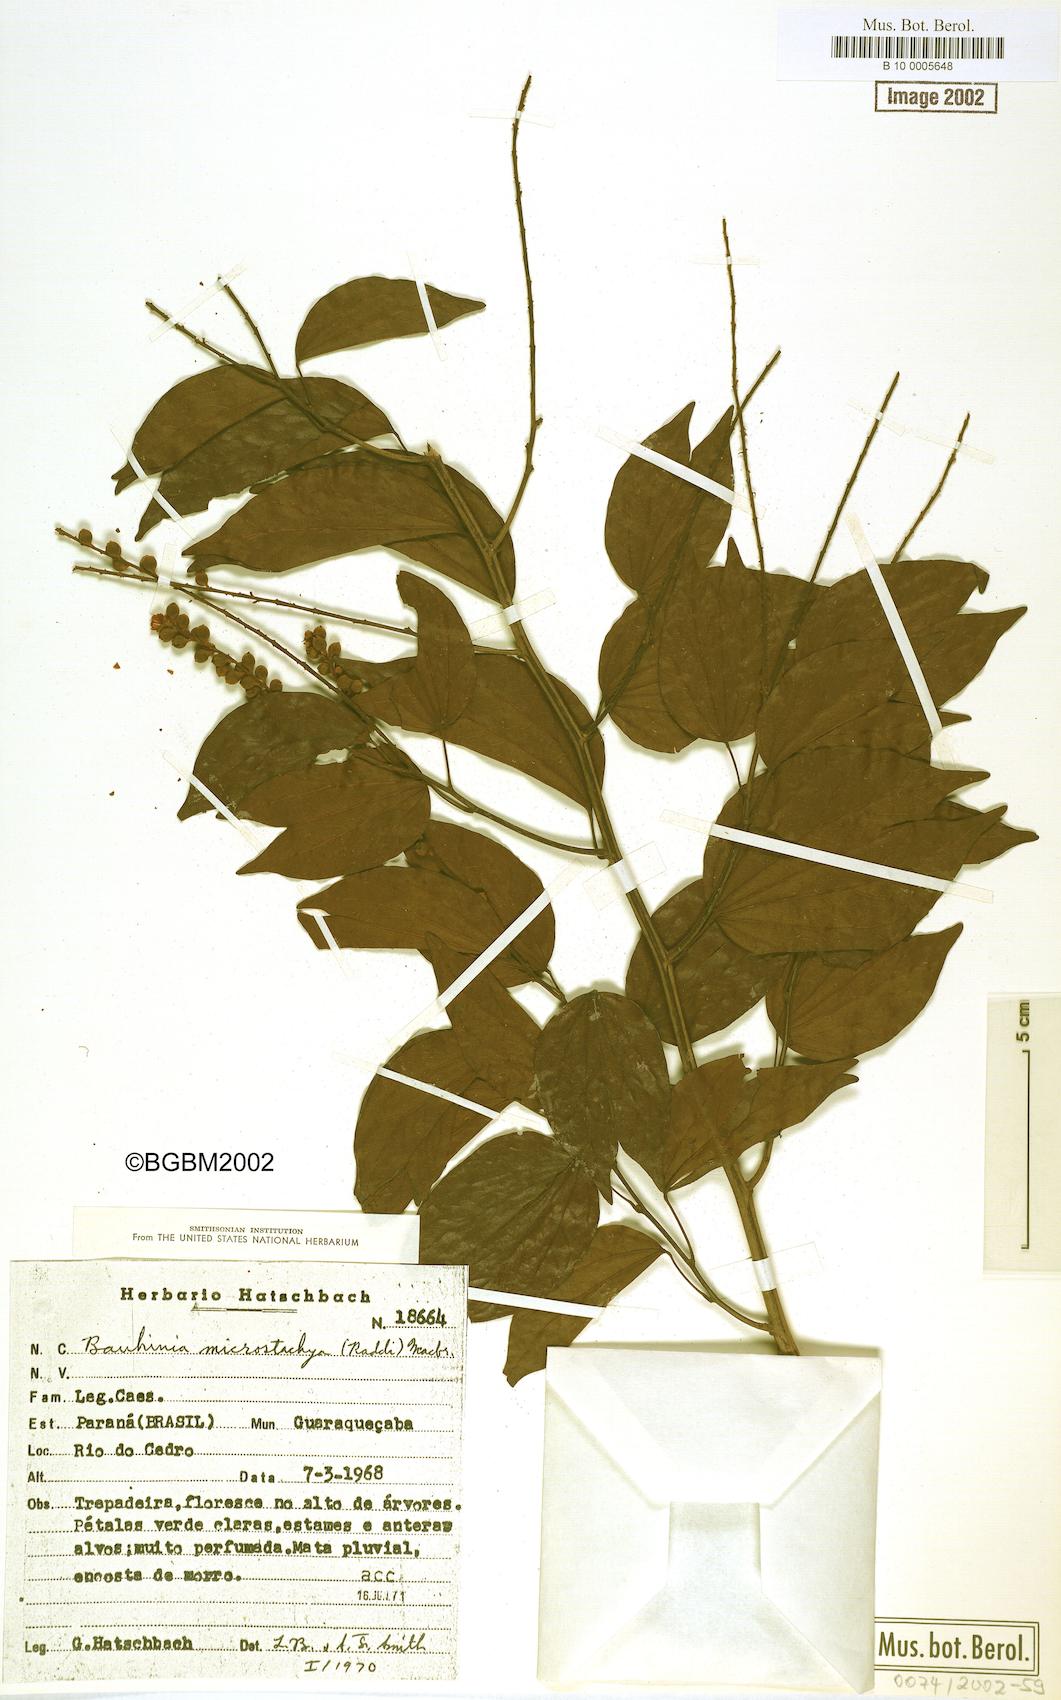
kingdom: Plantae
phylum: Tracheophyta
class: Magnoliopsida
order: Fabales
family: Fabaceae
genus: Schnella
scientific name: Schnella microstachya
